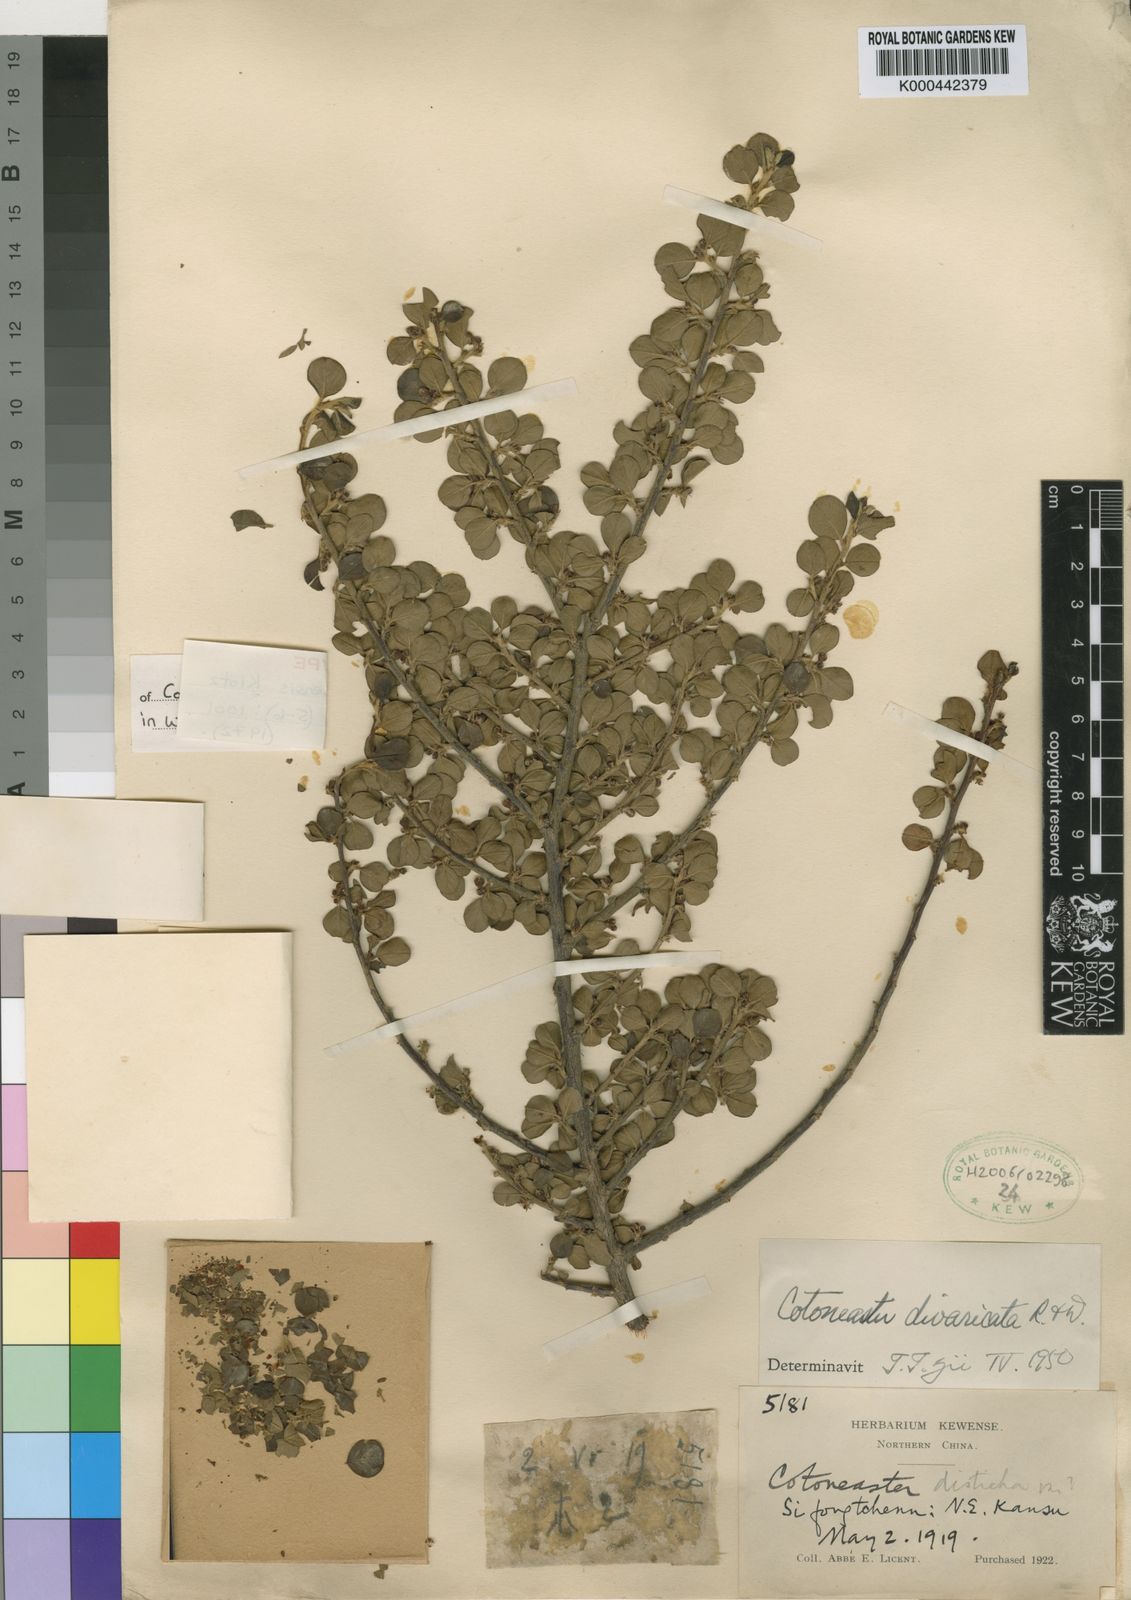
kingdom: Plantae
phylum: Tracheophyta
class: Magnoliopsida
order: Rosales
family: Rosaceae
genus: Cotoneaster
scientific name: Cotoneaster apiculatus
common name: Cranberry cotoneaster
